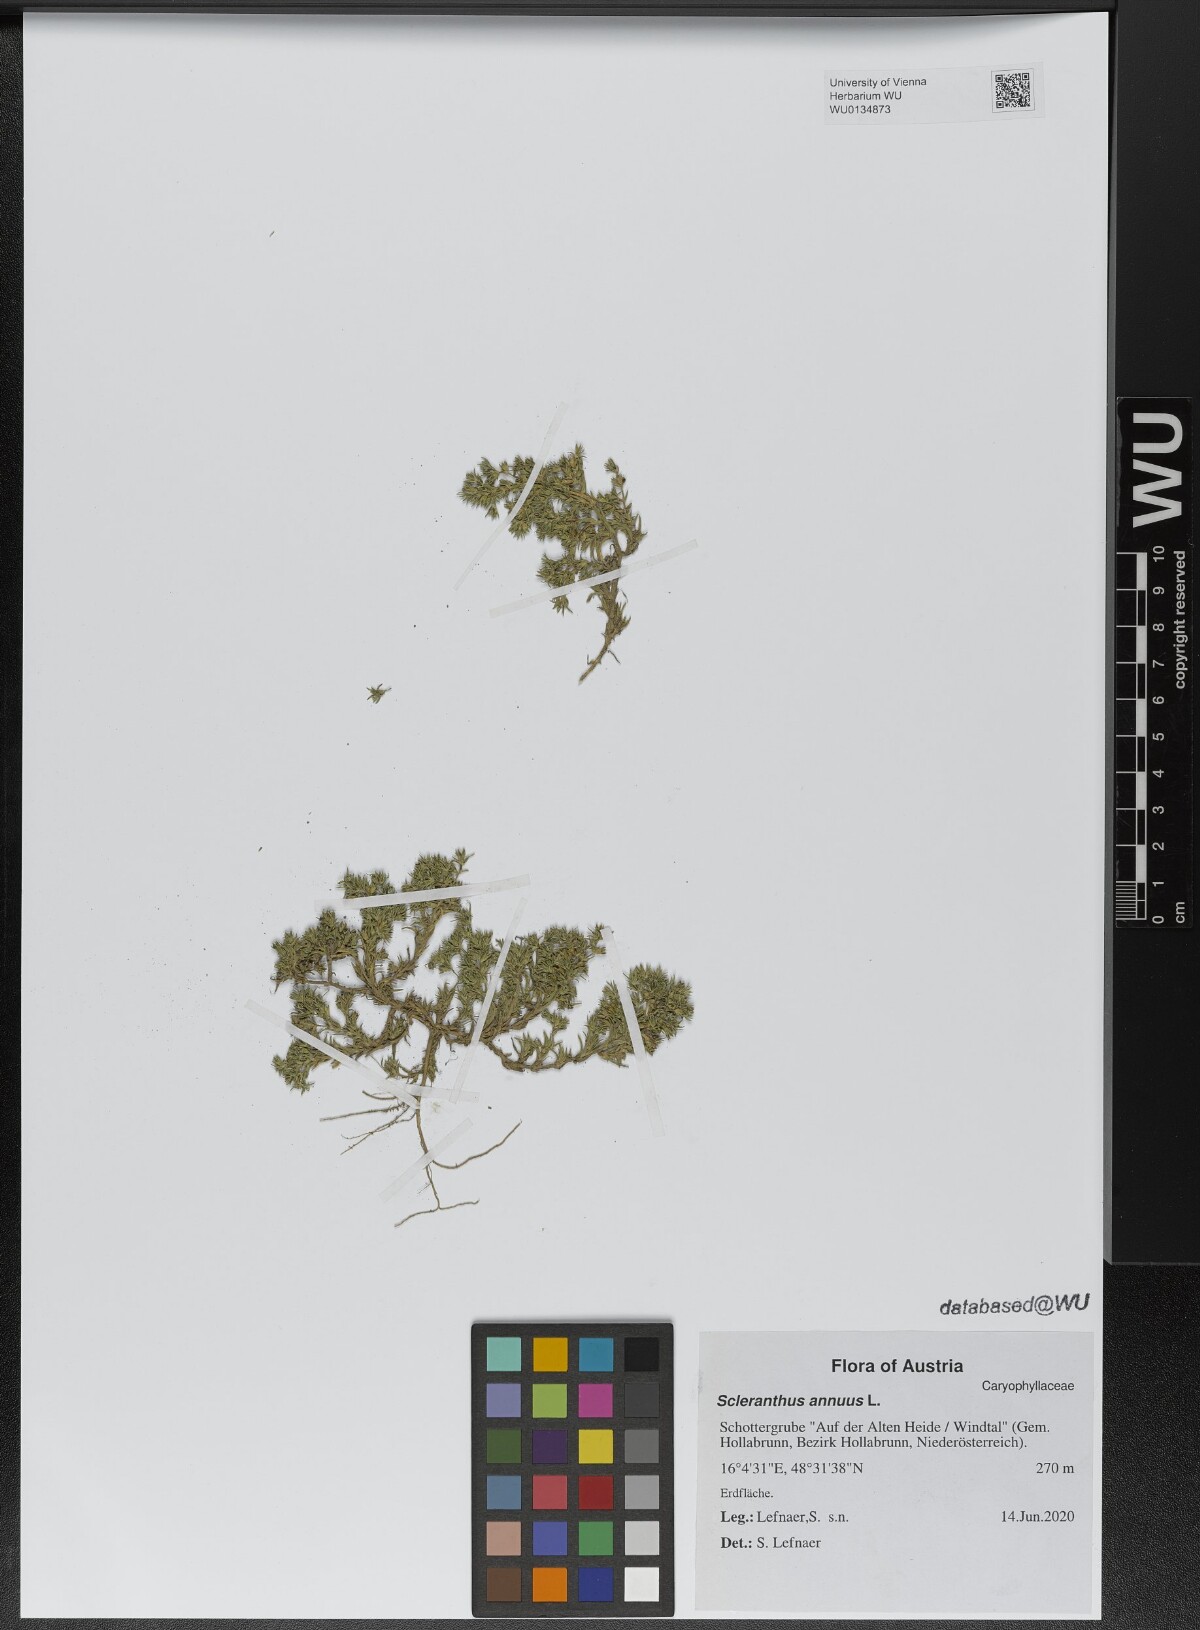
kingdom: Plantae
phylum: Tracheophyta
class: Magnoliopsida
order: Caryophyllales
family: Caryophyllaceae
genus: Scleranthus
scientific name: Scleranthus annuus
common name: Annual knawel
